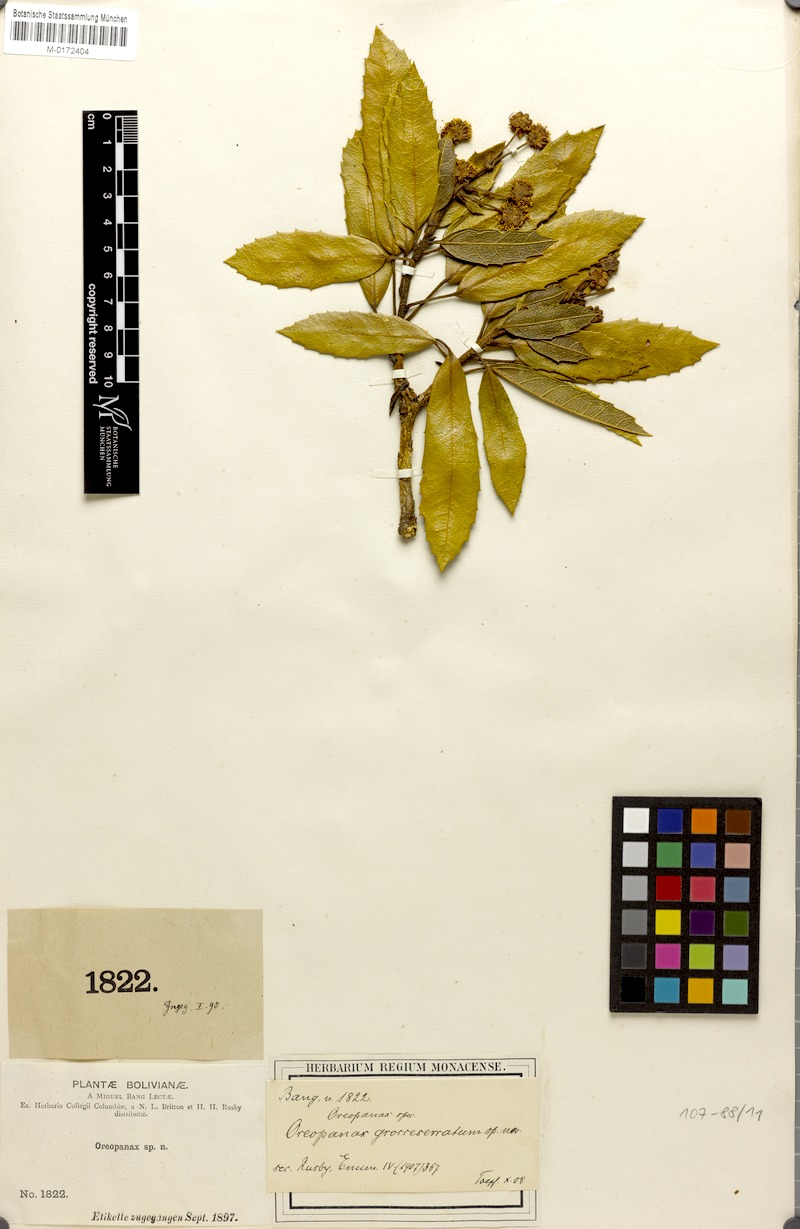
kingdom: Plantae
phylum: Tracheophyta
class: Magnoliopsida
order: Apiales
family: Araliaceae
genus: Oreopanax
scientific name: Oreopanax fulvus
